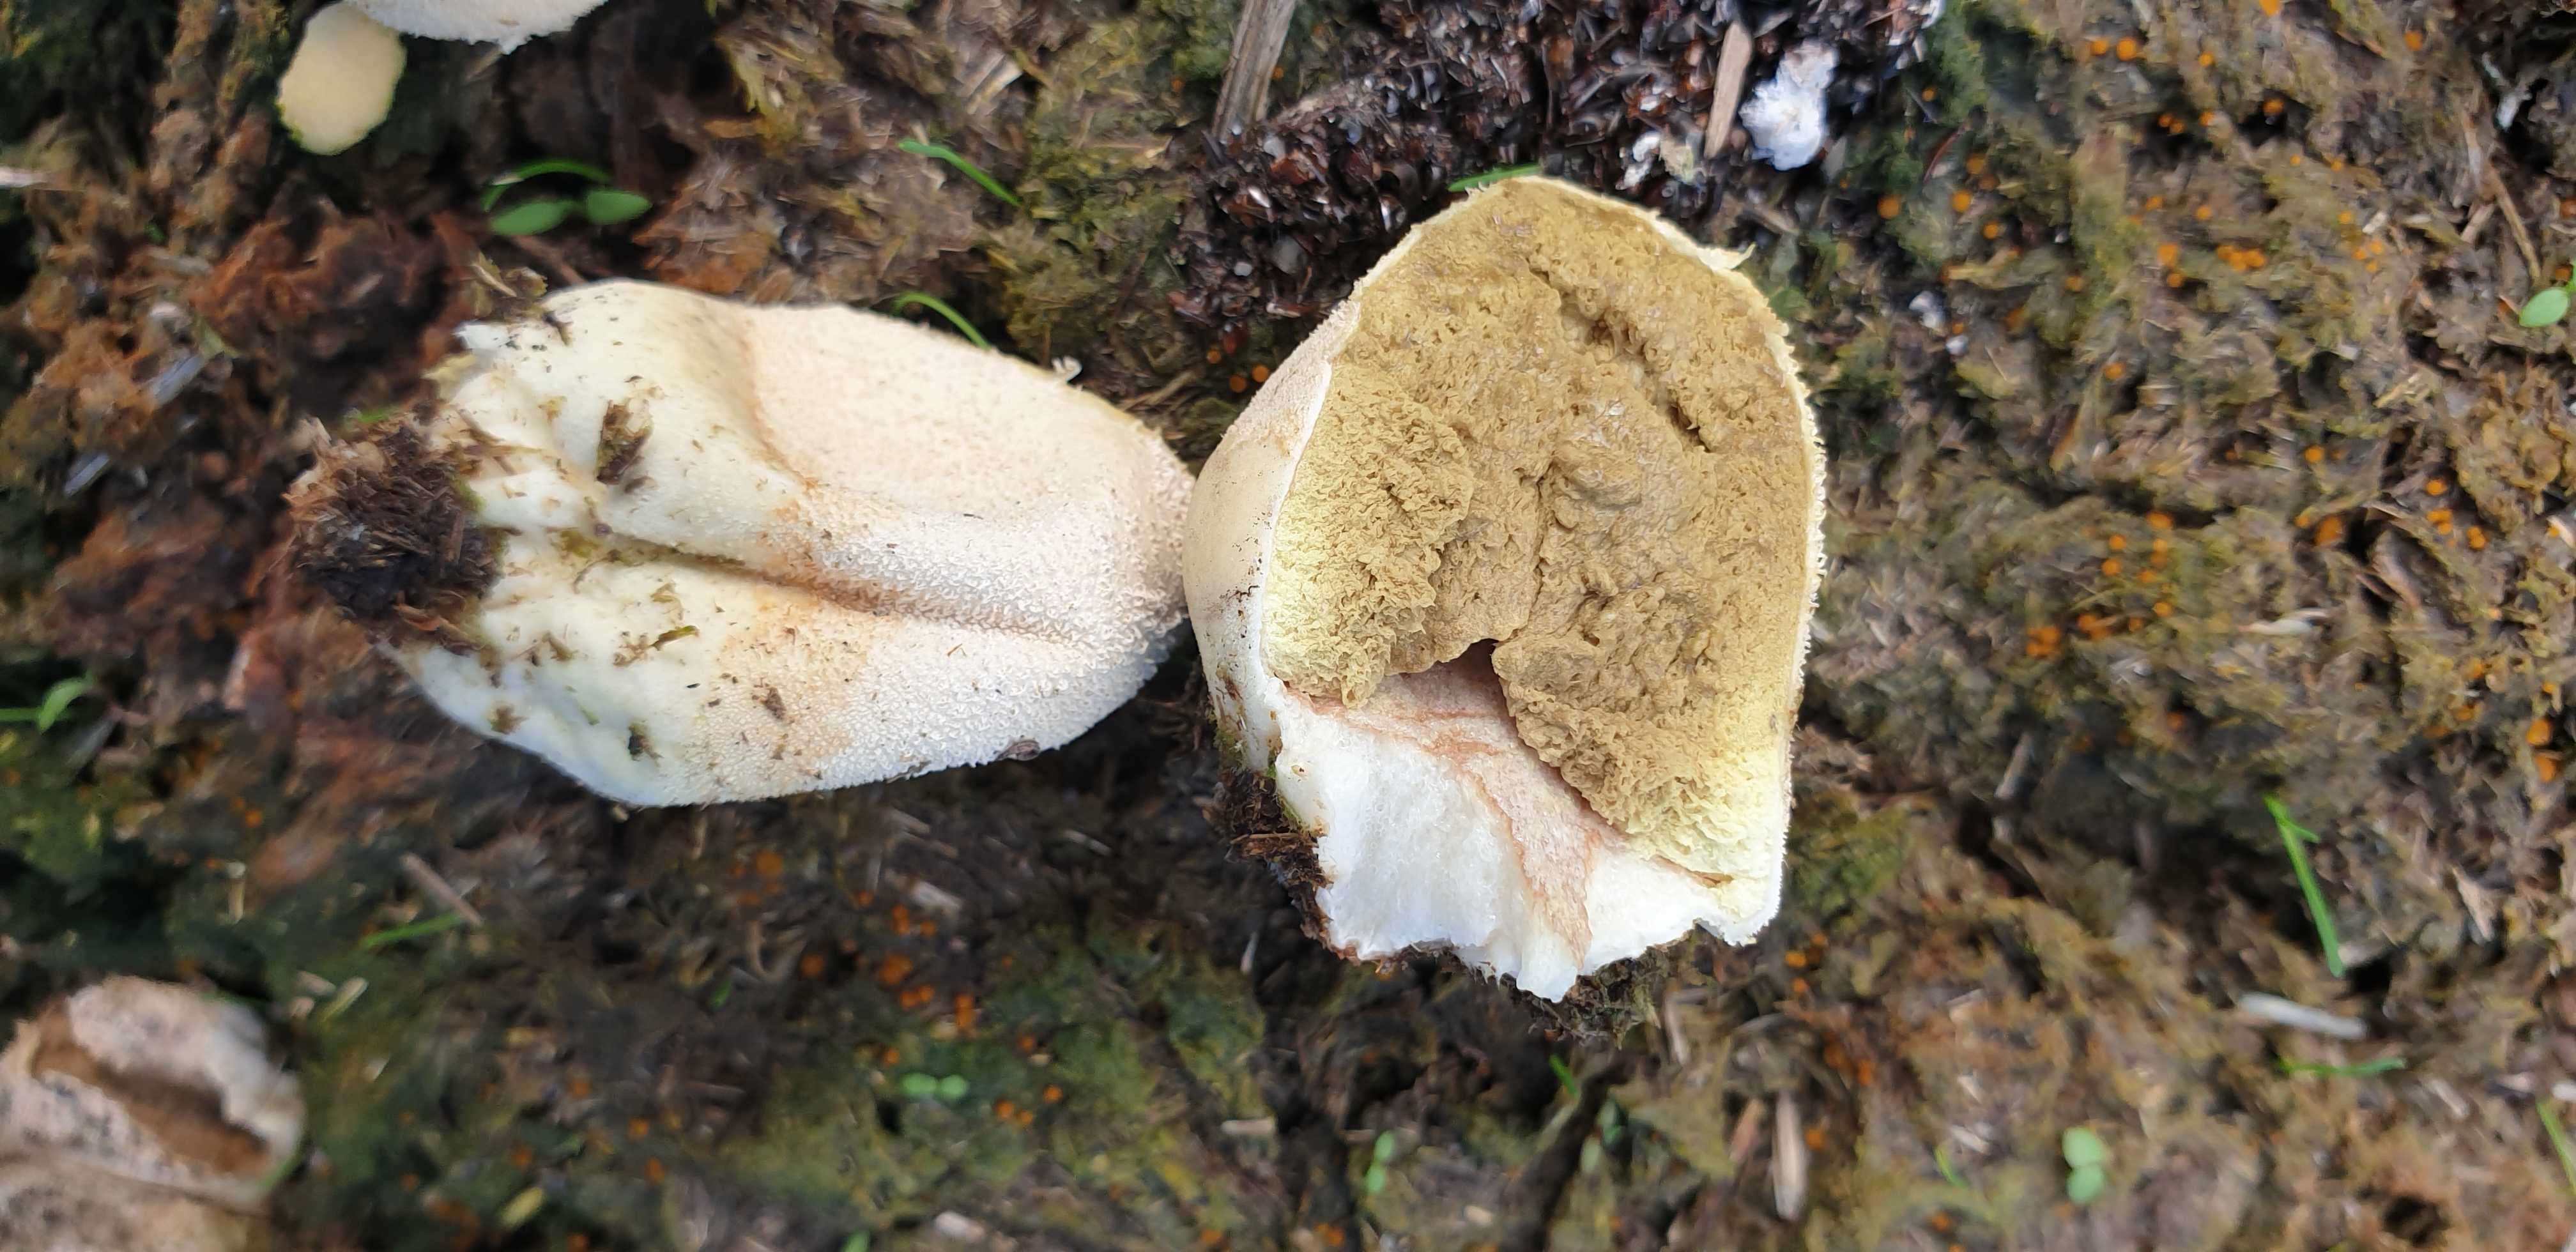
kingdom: Fungi
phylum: Basidiomycota
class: Agaricomycetes
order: Agaricales
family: Lycoperdaceae
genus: Lycoperdon
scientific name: Lycoperdon pratense
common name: flad støvbold
